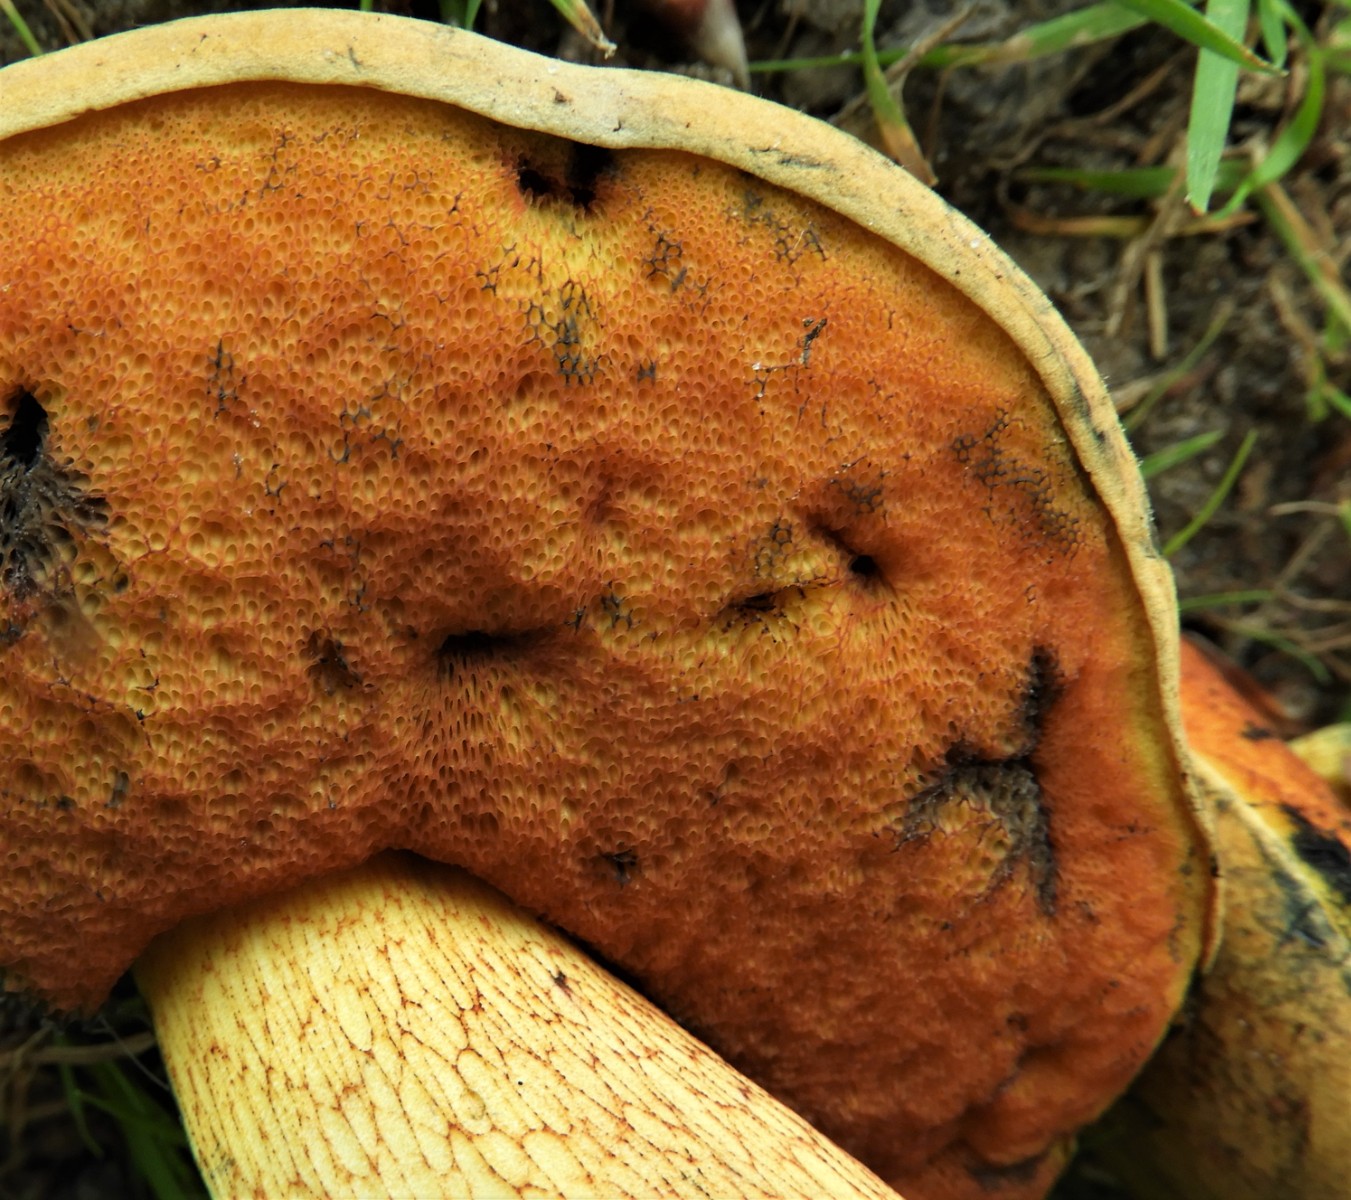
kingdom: Fungi
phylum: Basidiomycota
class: Agaricomycetes
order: Boletales
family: Boletaceae
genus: Suillellus
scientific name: Suillellus luridus
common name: netstokket indigorørhat
